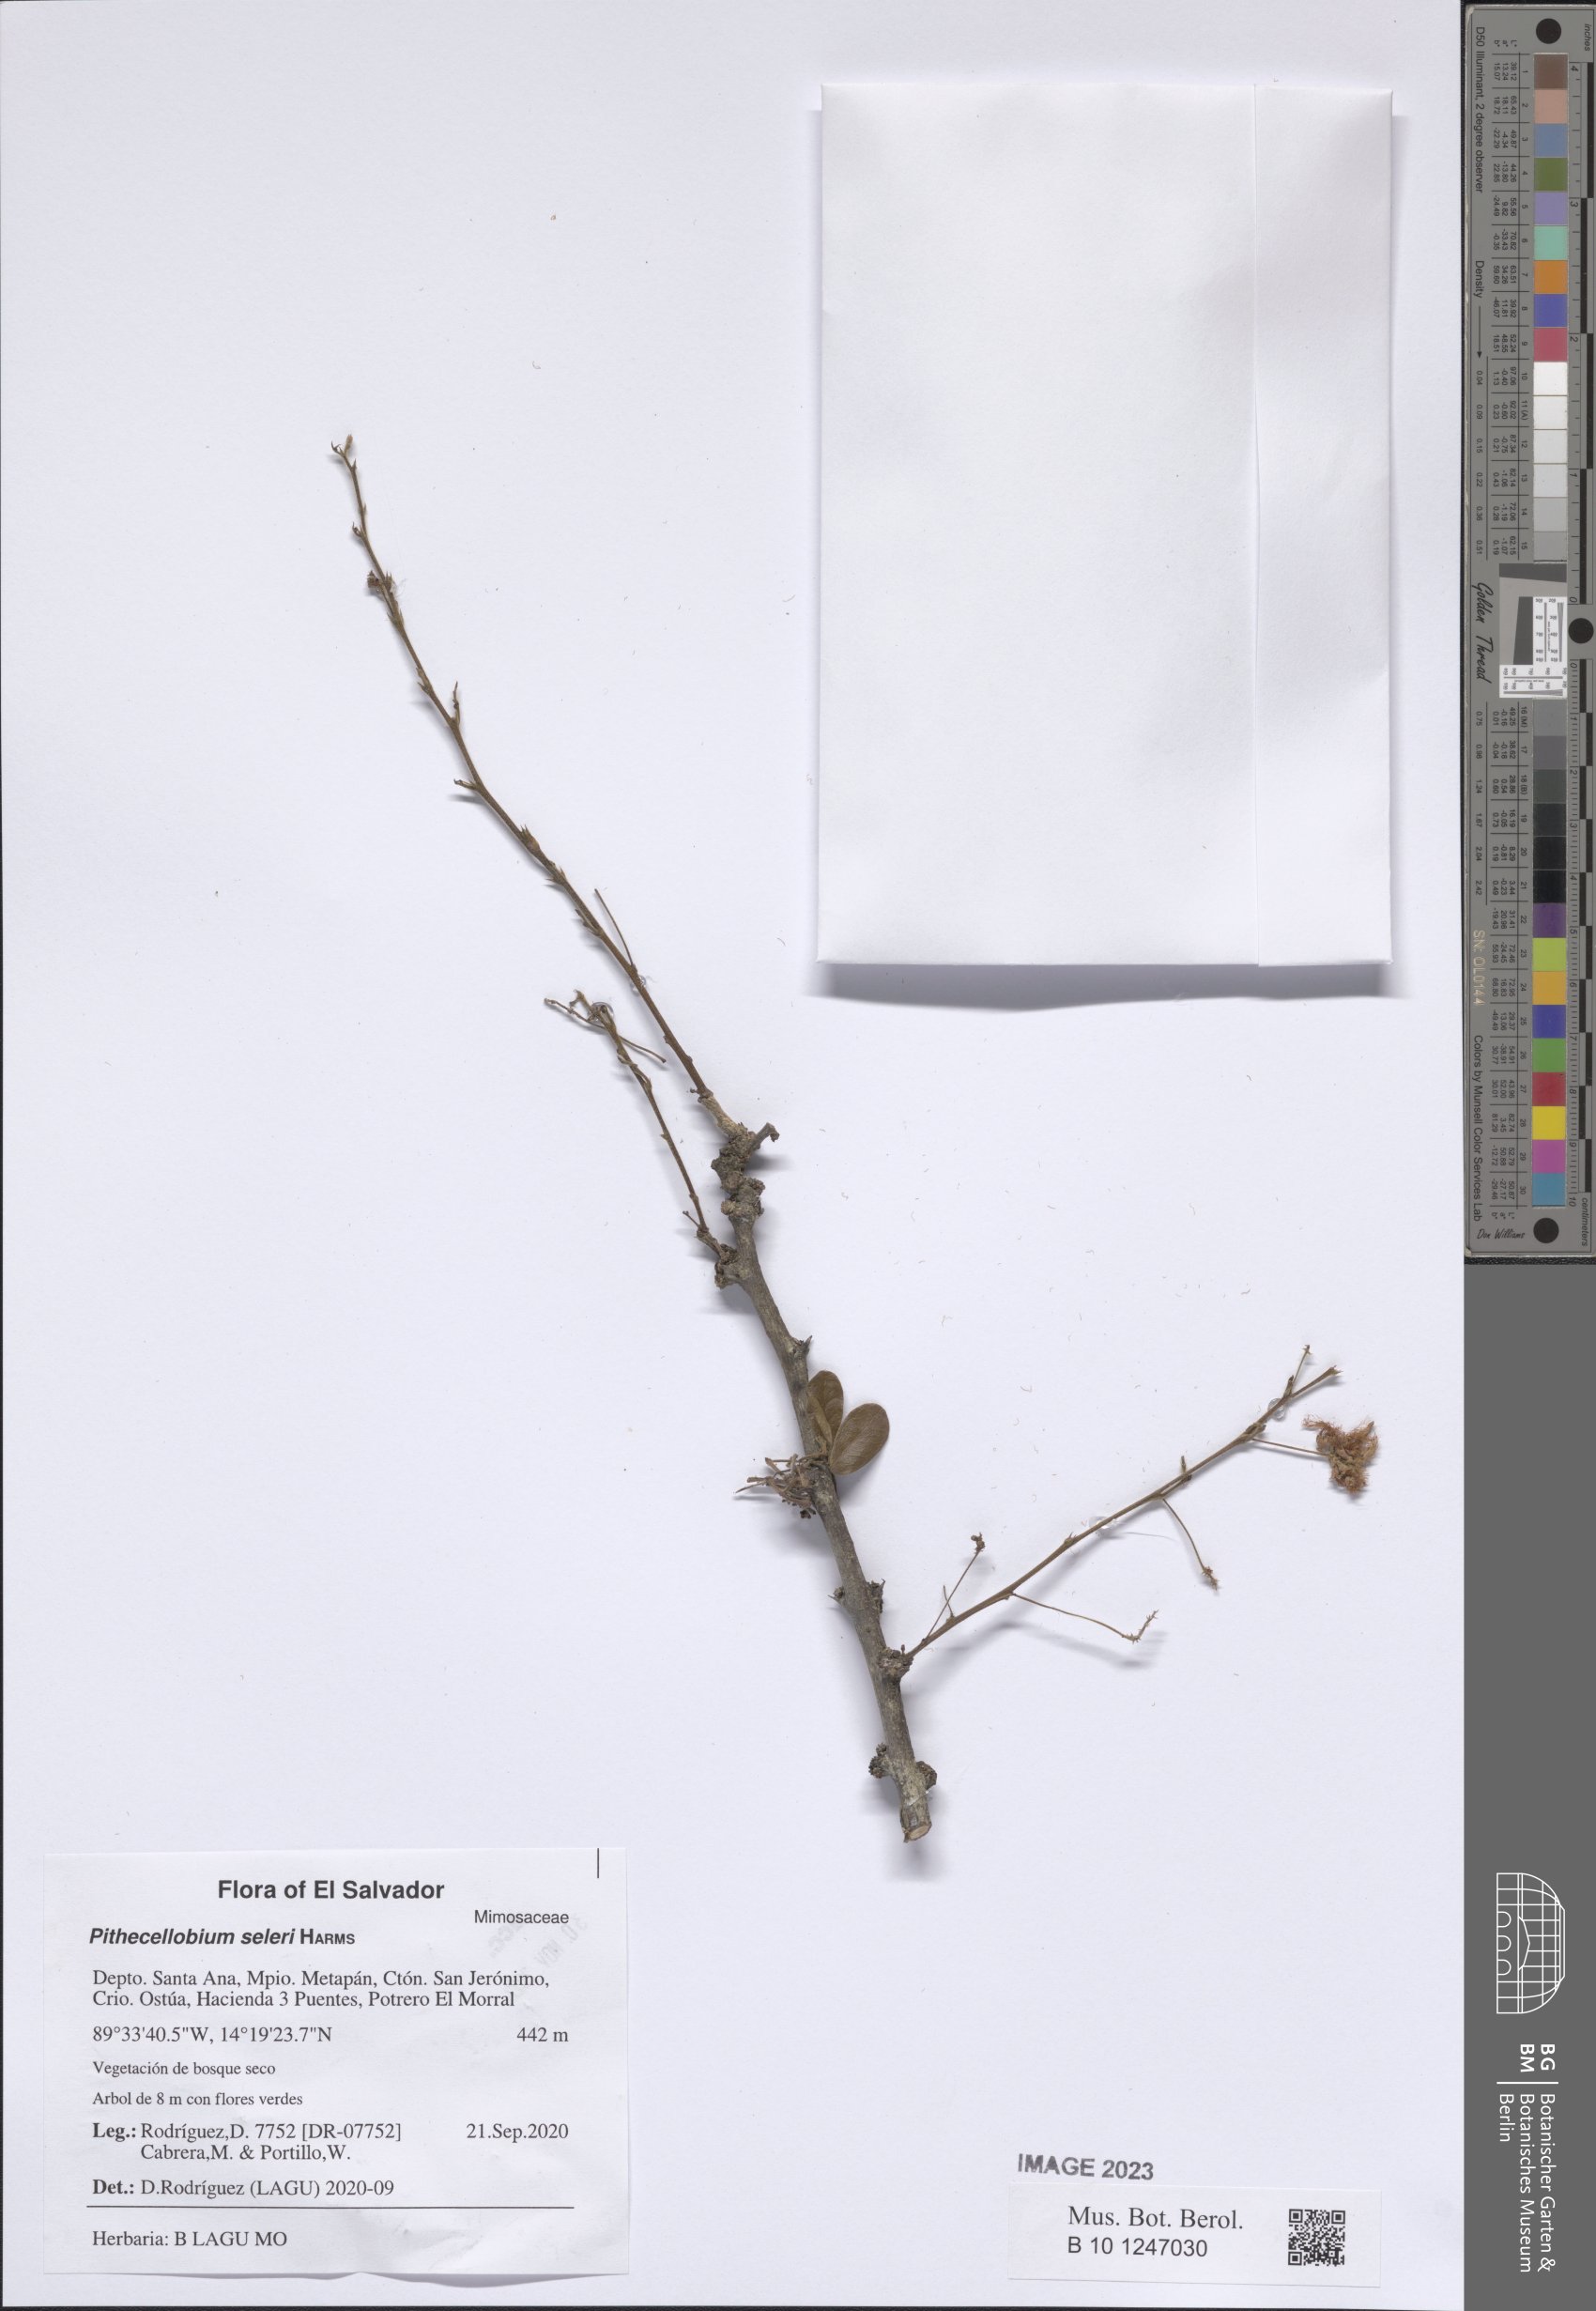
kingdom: Plantae
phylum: Tracheophyta
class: Magnoliopsida
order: Fabales
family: Fabaceae
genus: Pithecellobium
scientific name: Pithecellobium unguis-cati
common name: Cat's-claw
